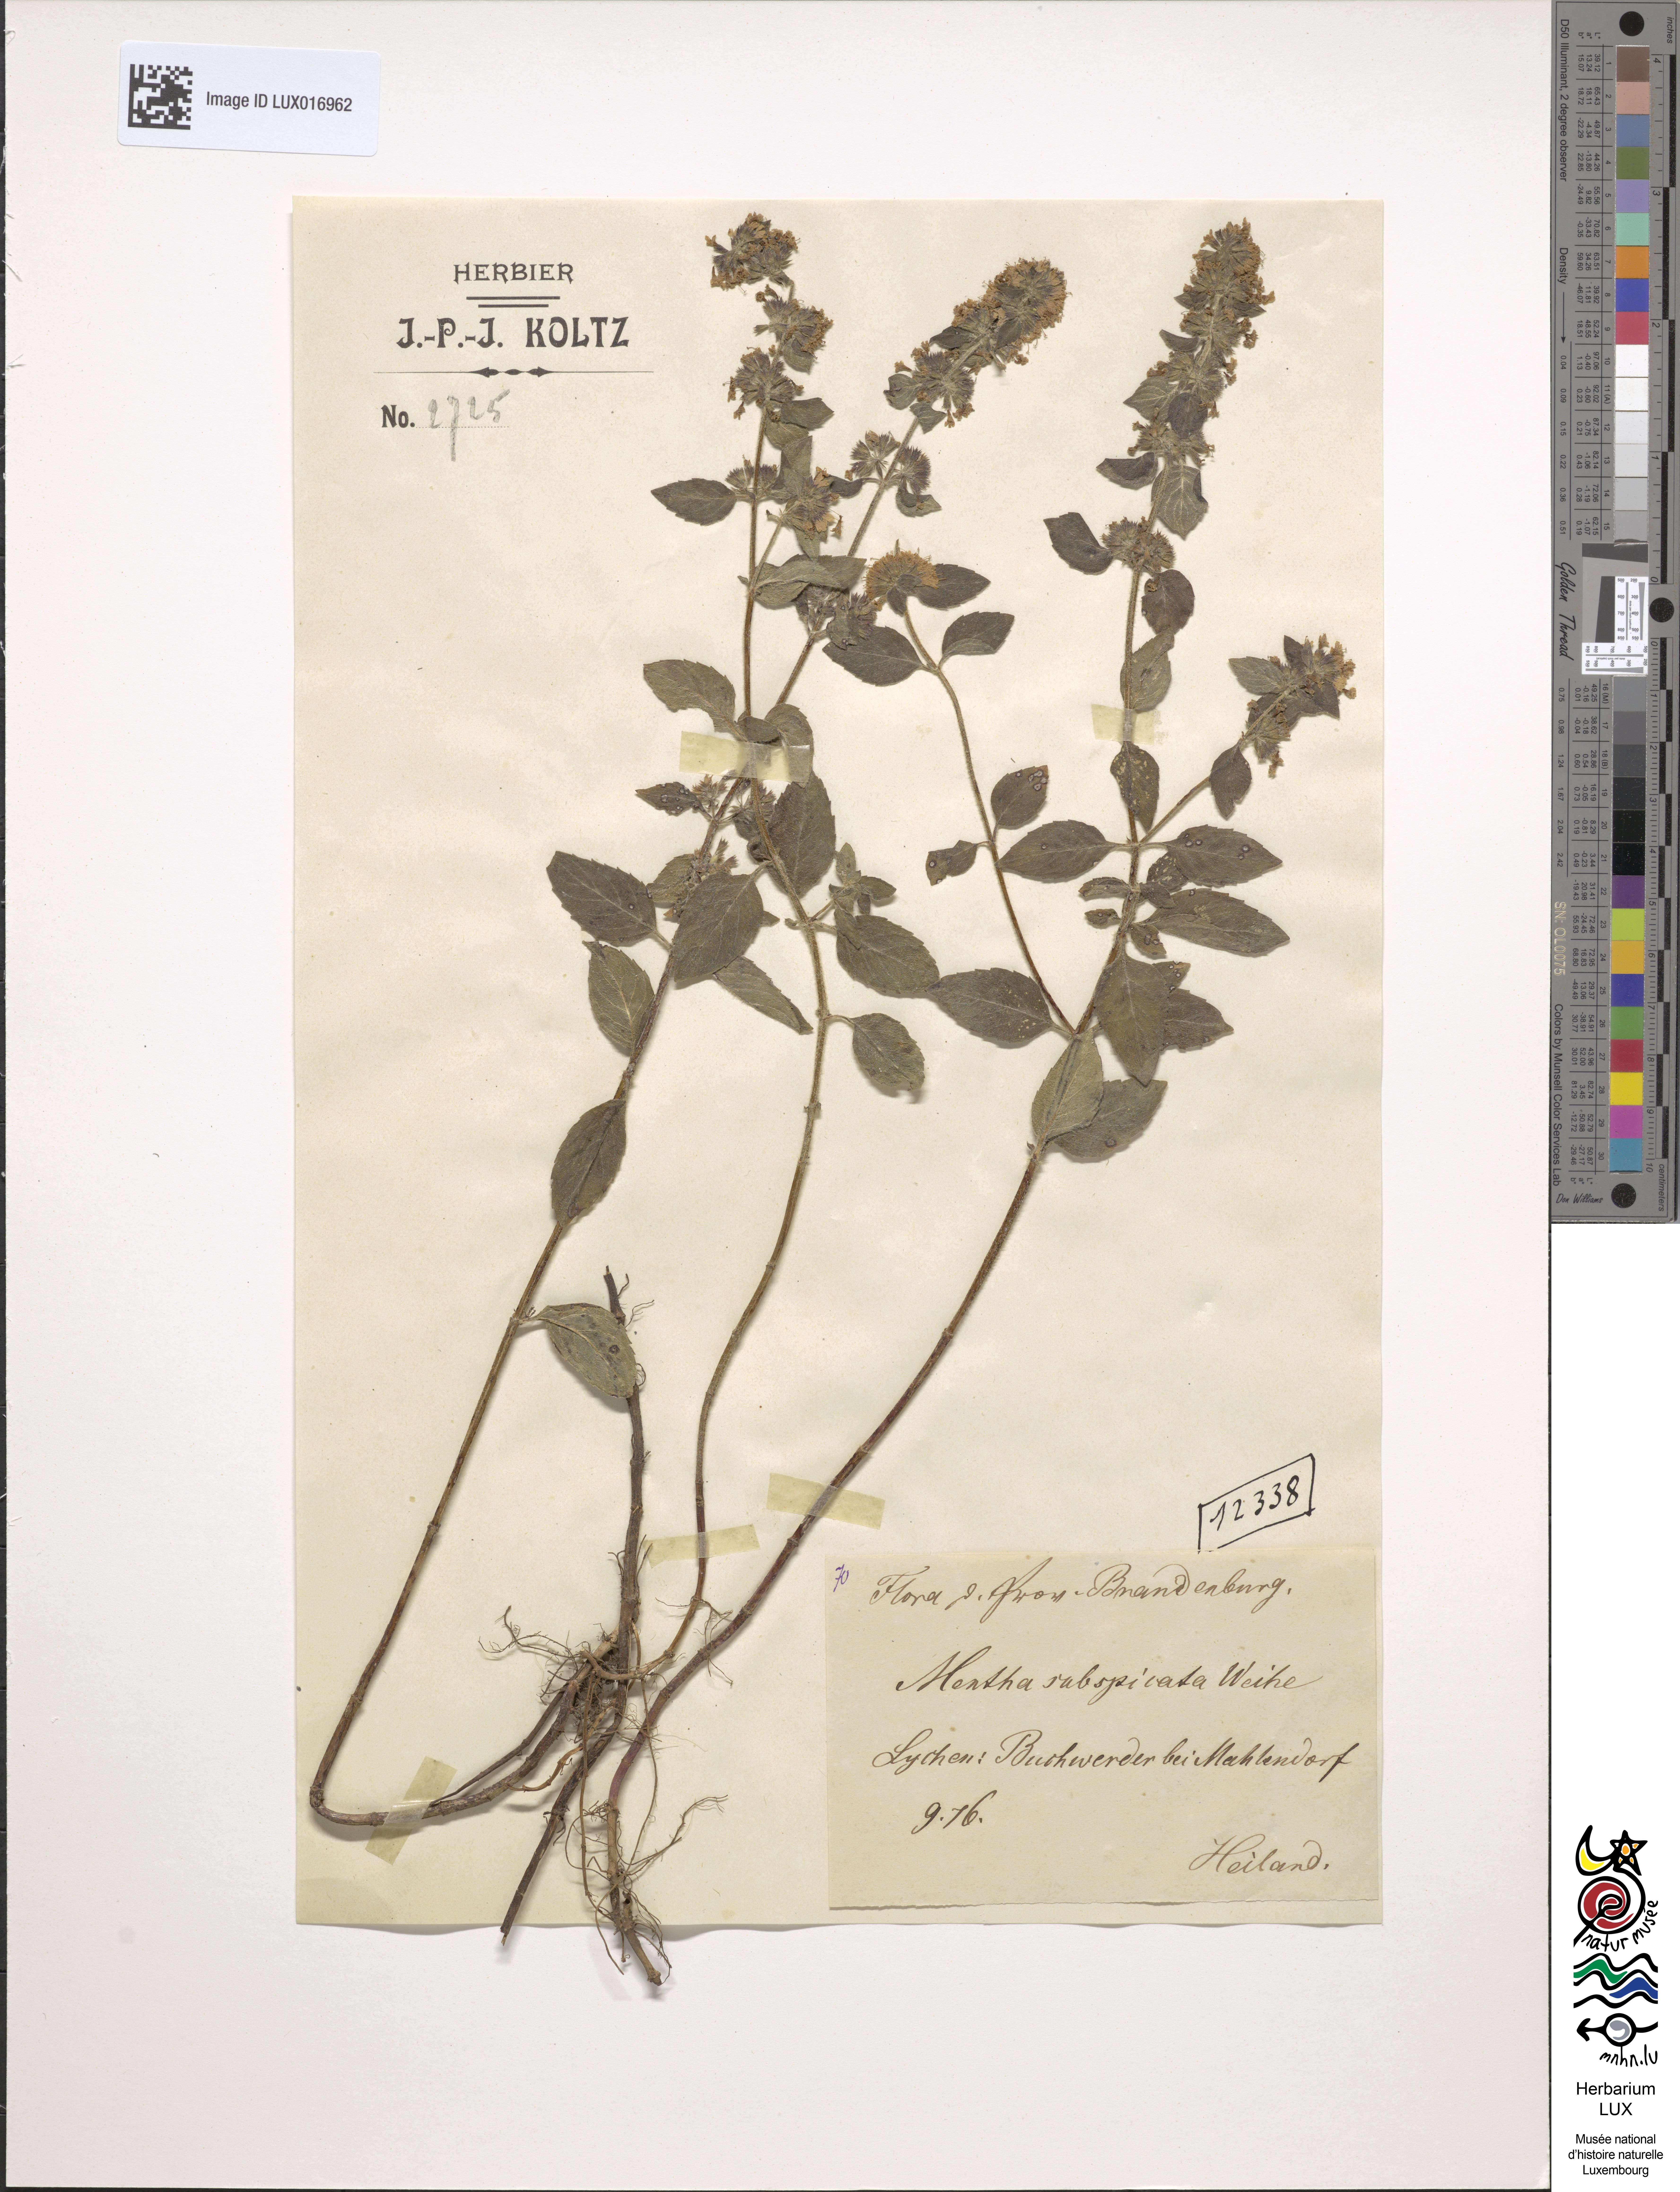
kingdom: Plantae
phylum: Tracheophyta
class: Magnoliopsida
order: Lamiales
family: Lamiaceae
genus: Mentha
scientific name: Mentha aquatica
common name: Water mint
